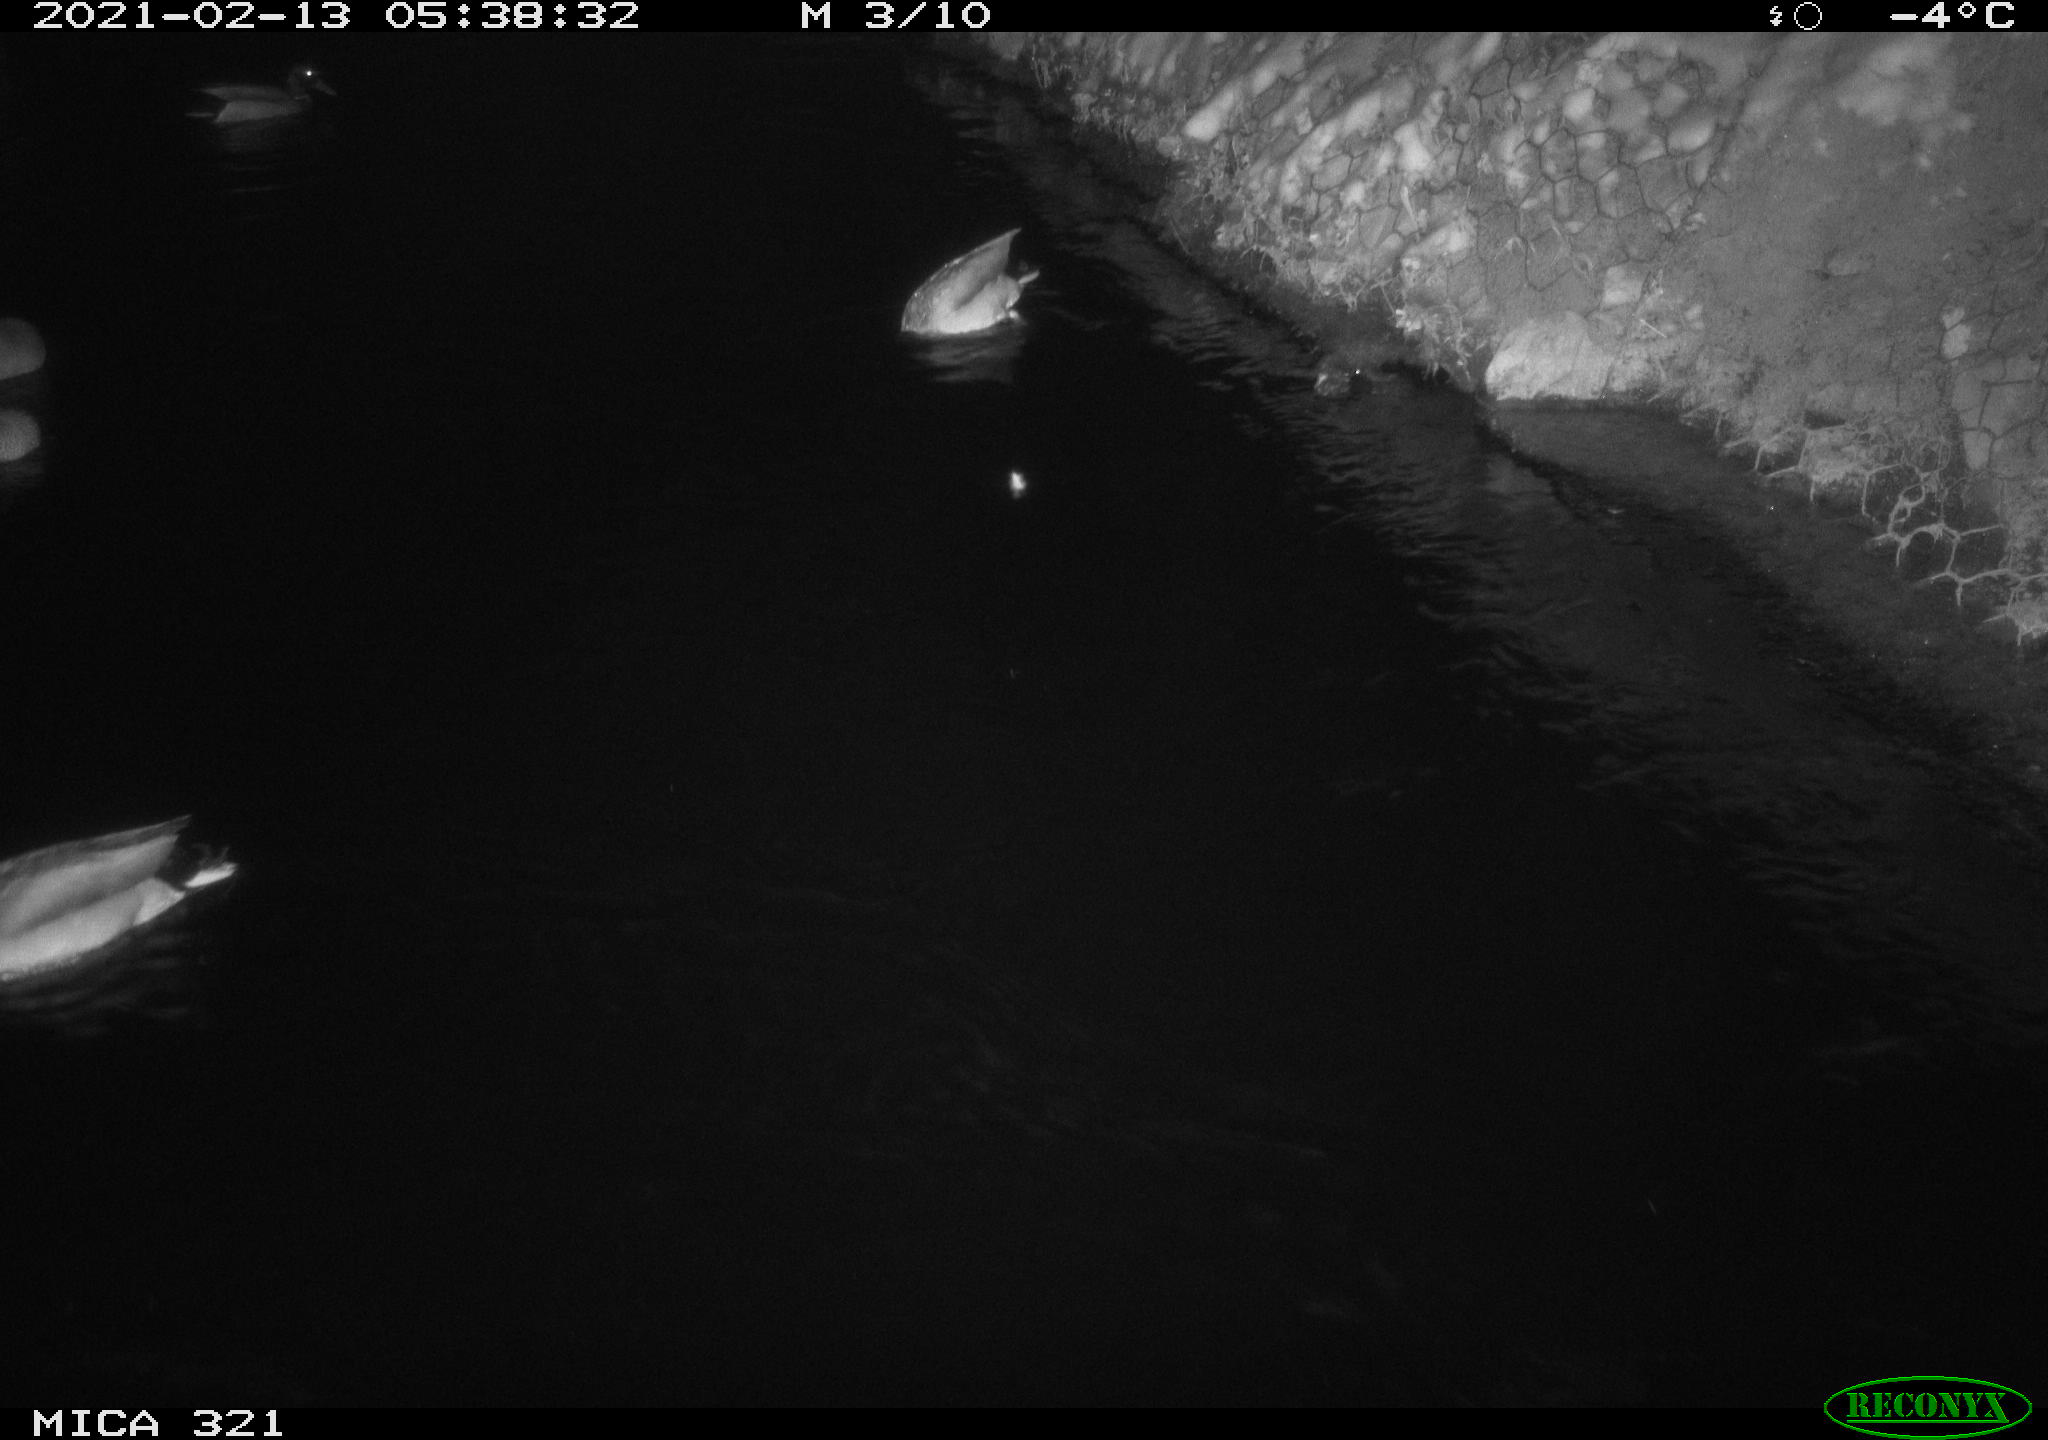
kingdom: Animalia
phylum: Chordata
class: Aves
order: Anseriformes
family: Anatidae
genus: Anas
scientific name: Anas platyrhynchos
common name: Mallard
